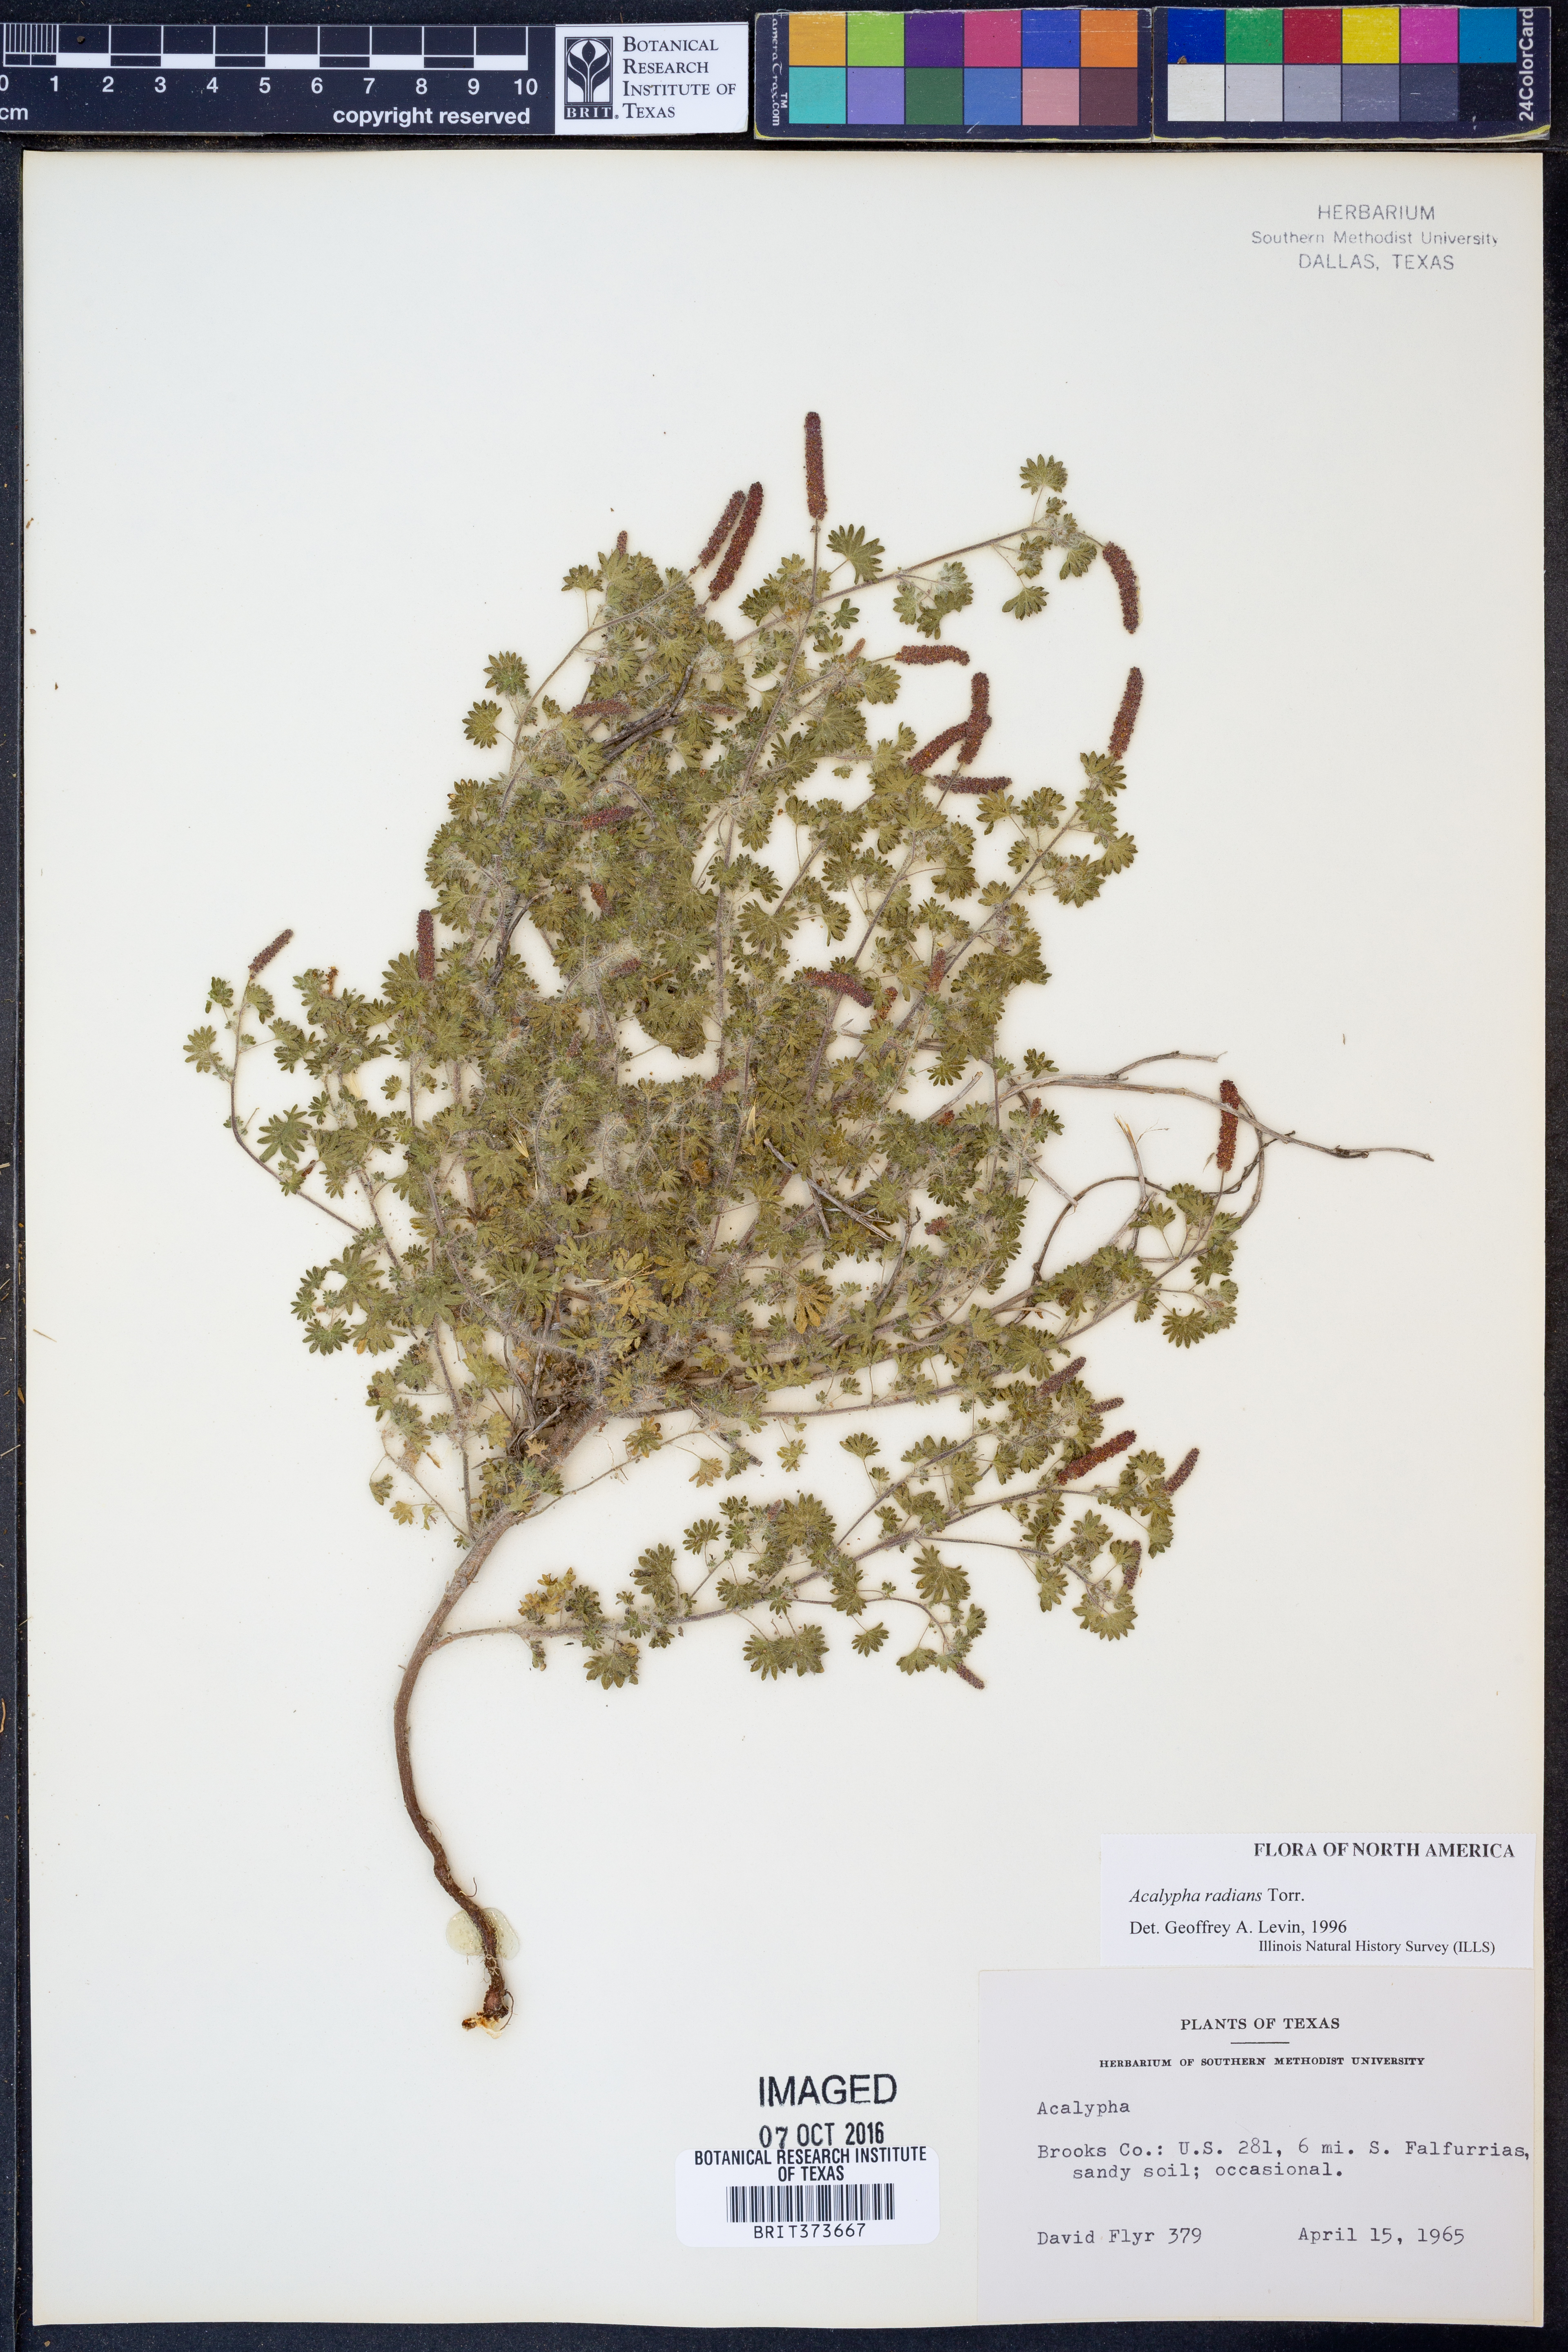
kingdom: Plantae
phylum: Tracheophyta
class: Magnoliopsida
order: Malpighiales
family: Euphorbiaceae
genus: Acalypha
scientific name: Acalypha radians
